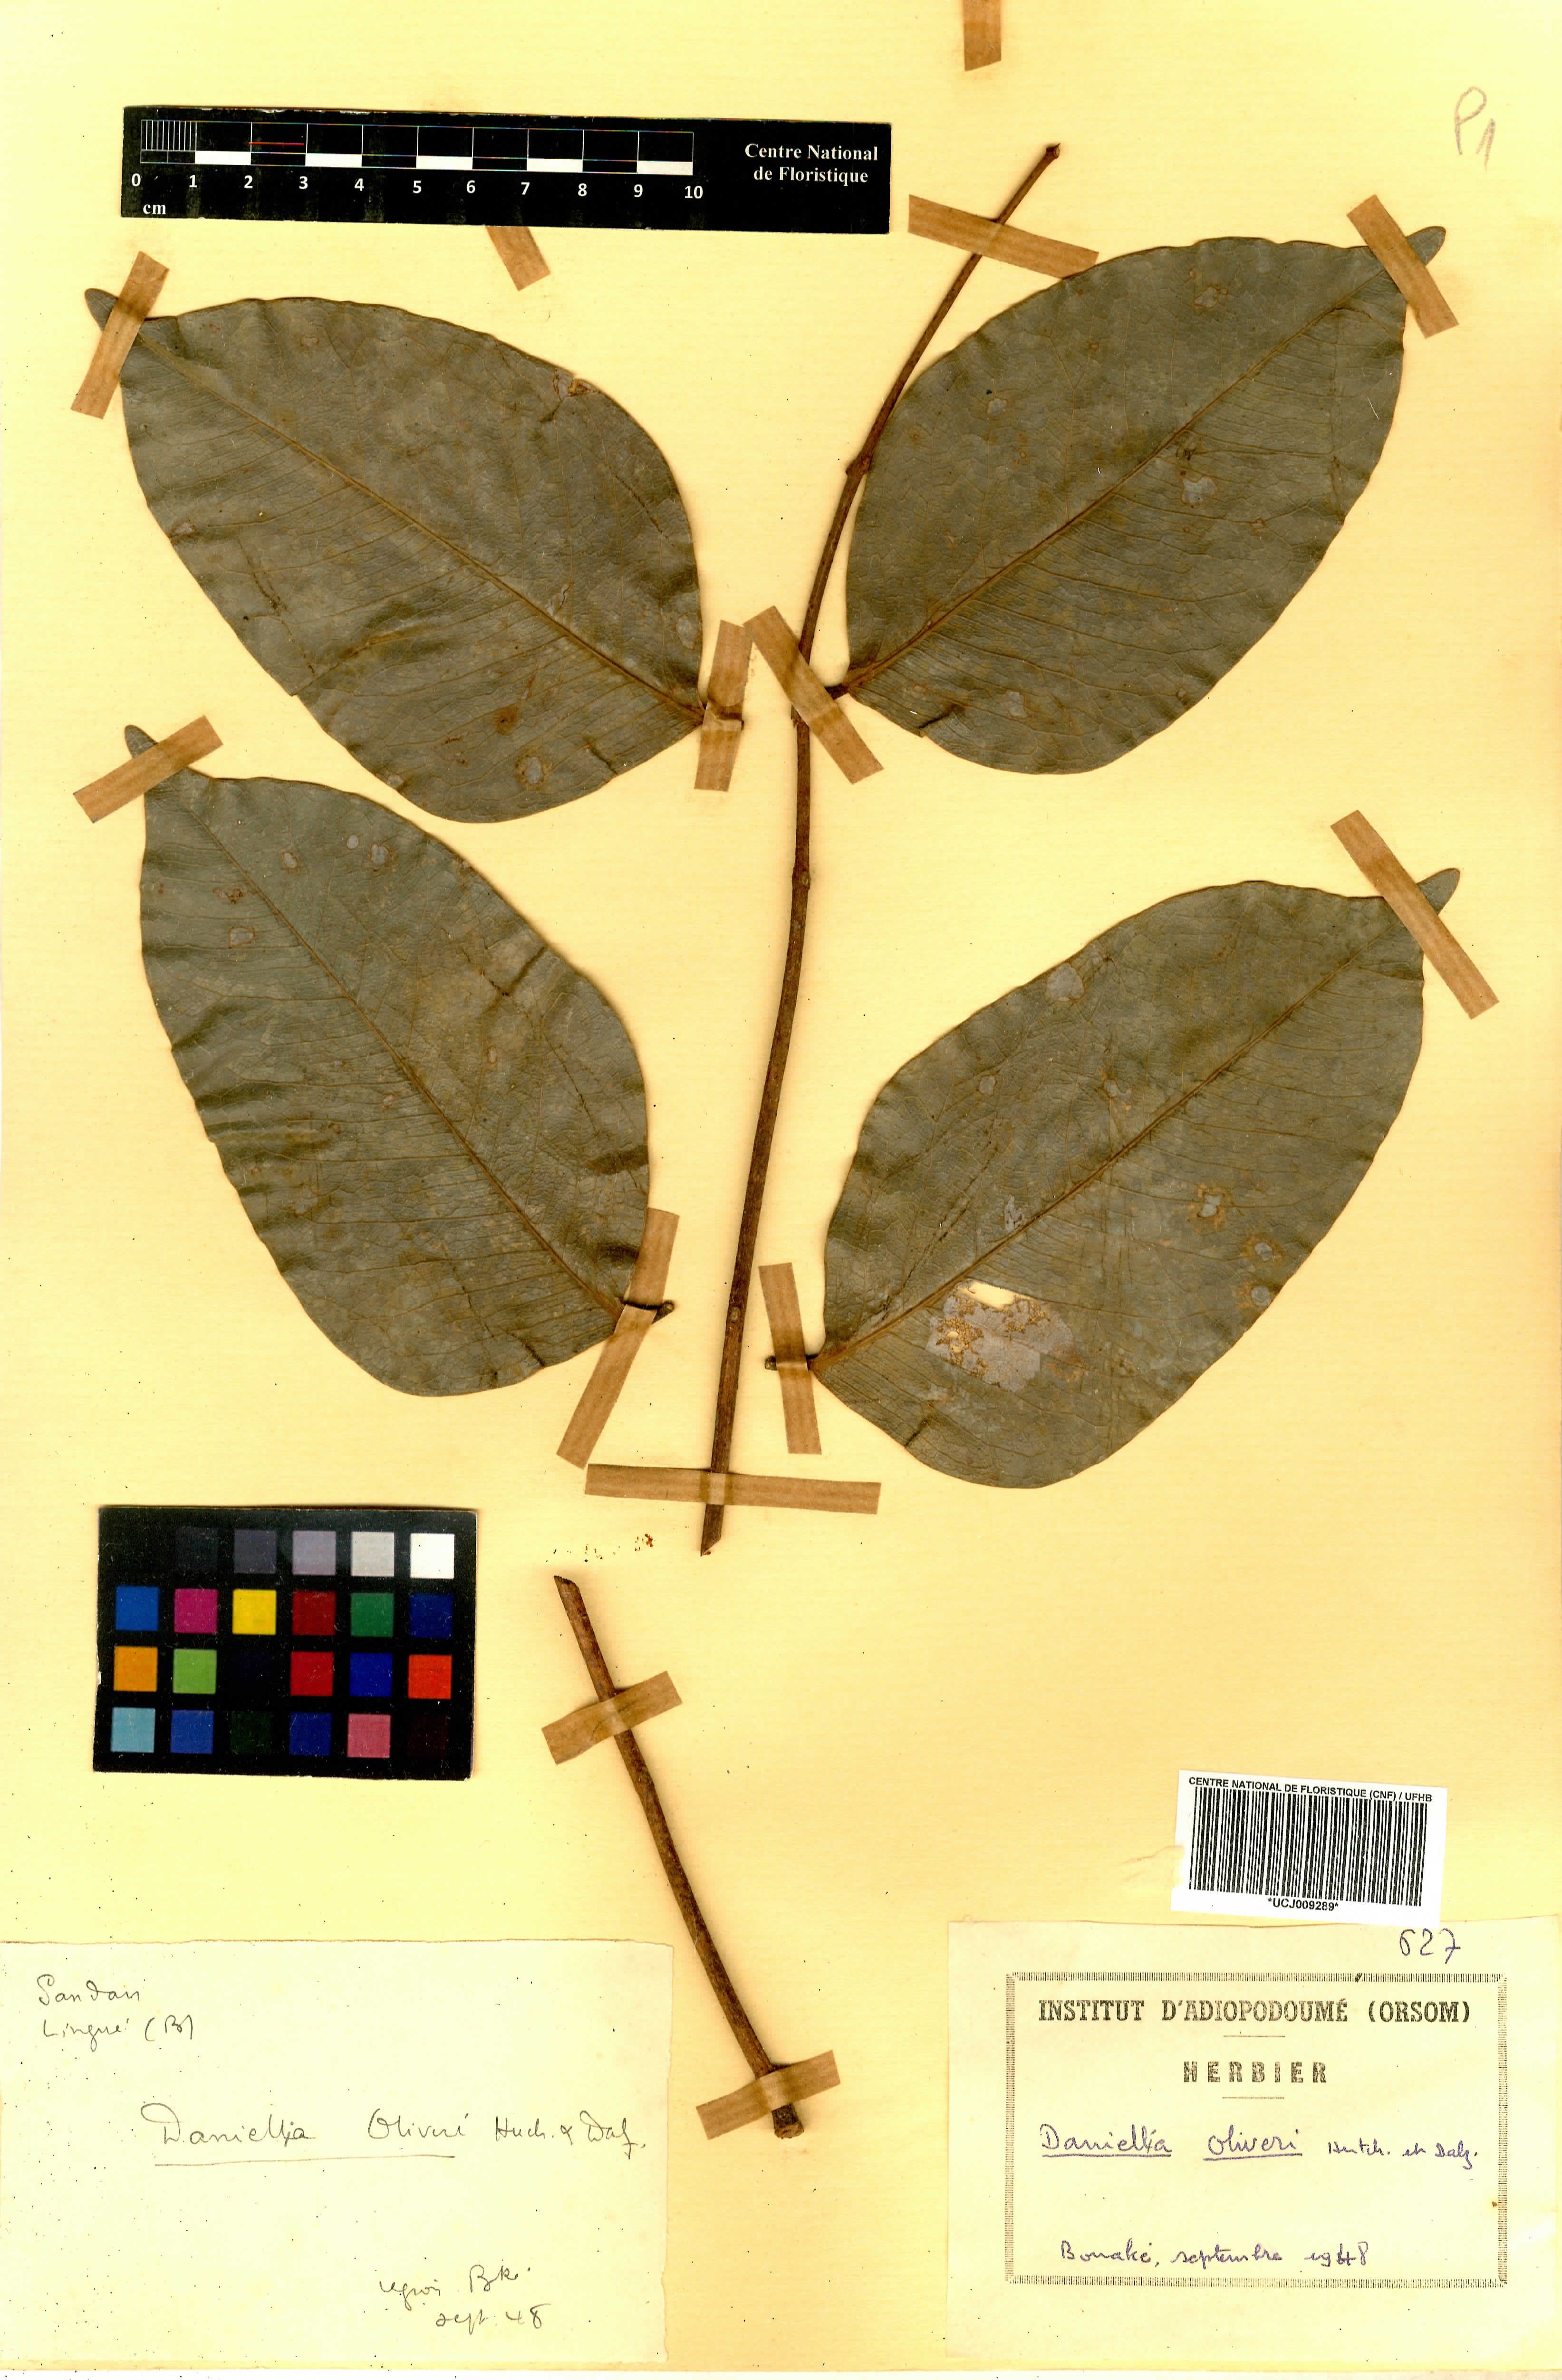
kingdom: Plantae
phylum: Tracheophyta
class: Magnoliopsida
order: Fabales
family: Fabaceae
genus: Daniellia
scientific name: Daniellia oliveri
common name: African copaiba balsamtree
